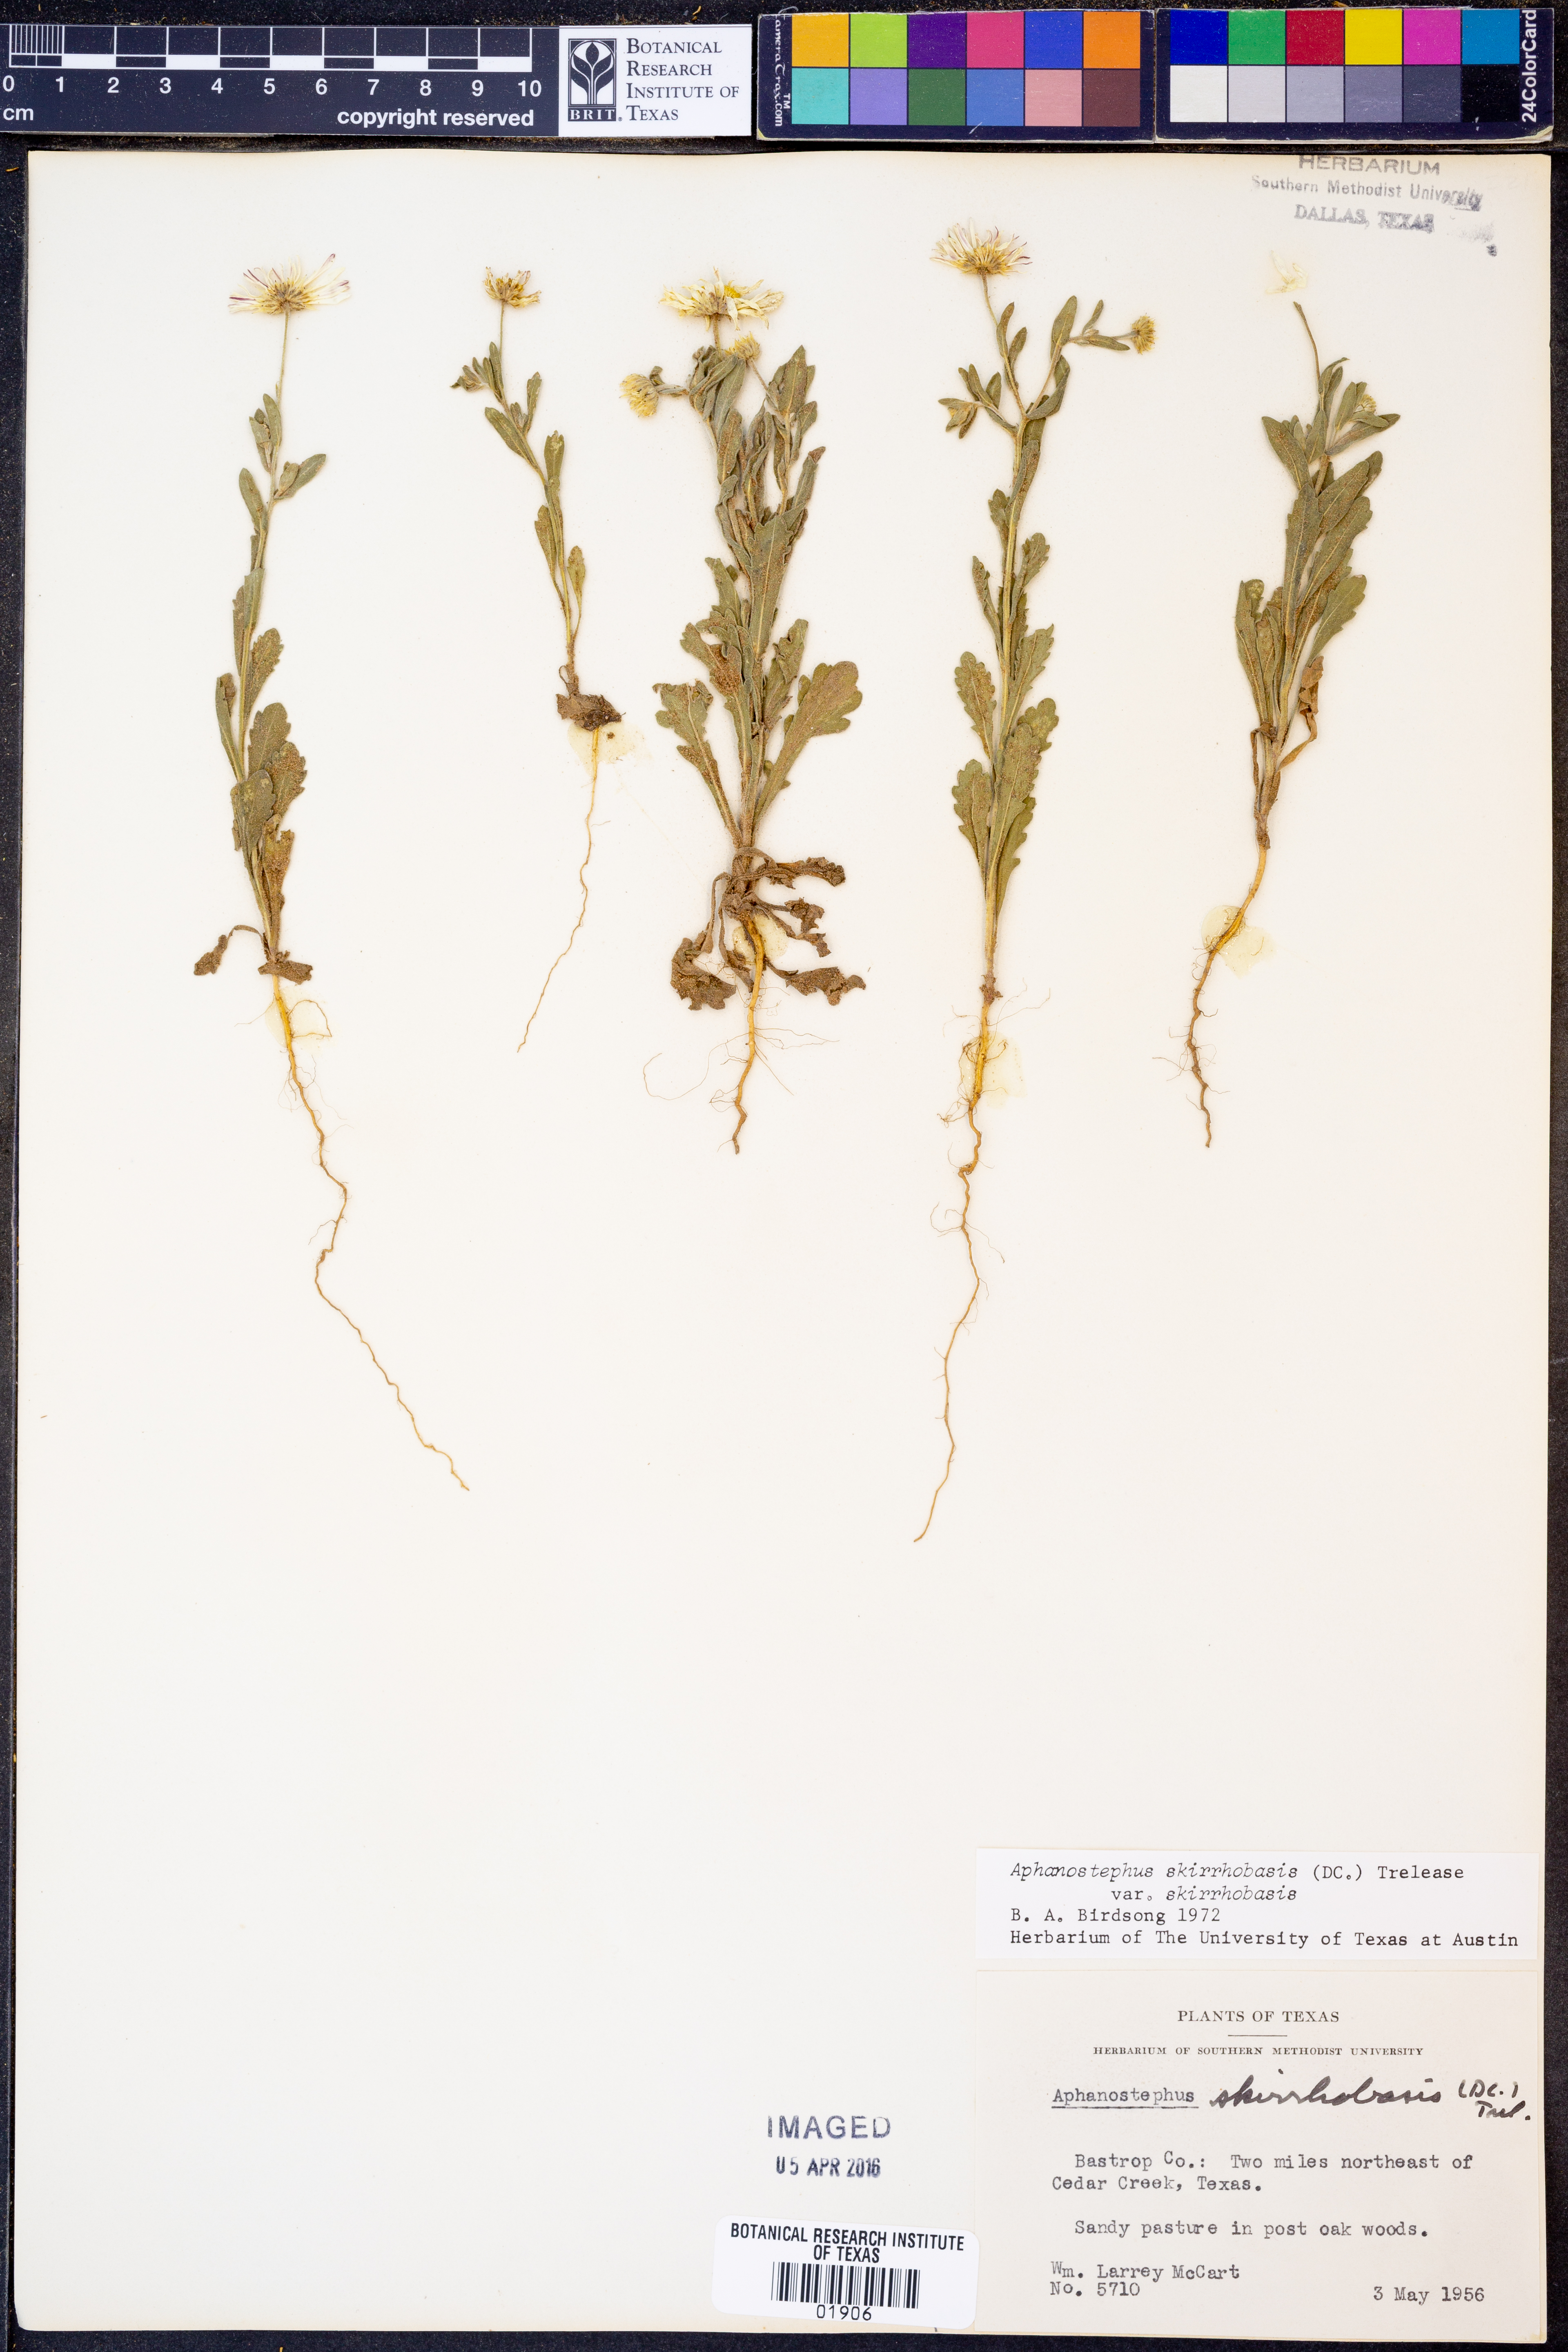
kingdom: Plantae
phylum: Tracheophyta
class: Magnoliopsida
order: Asterales
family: Asteraceae
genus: Aphanostephus
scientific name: Aphanostephus skirrhobasis
